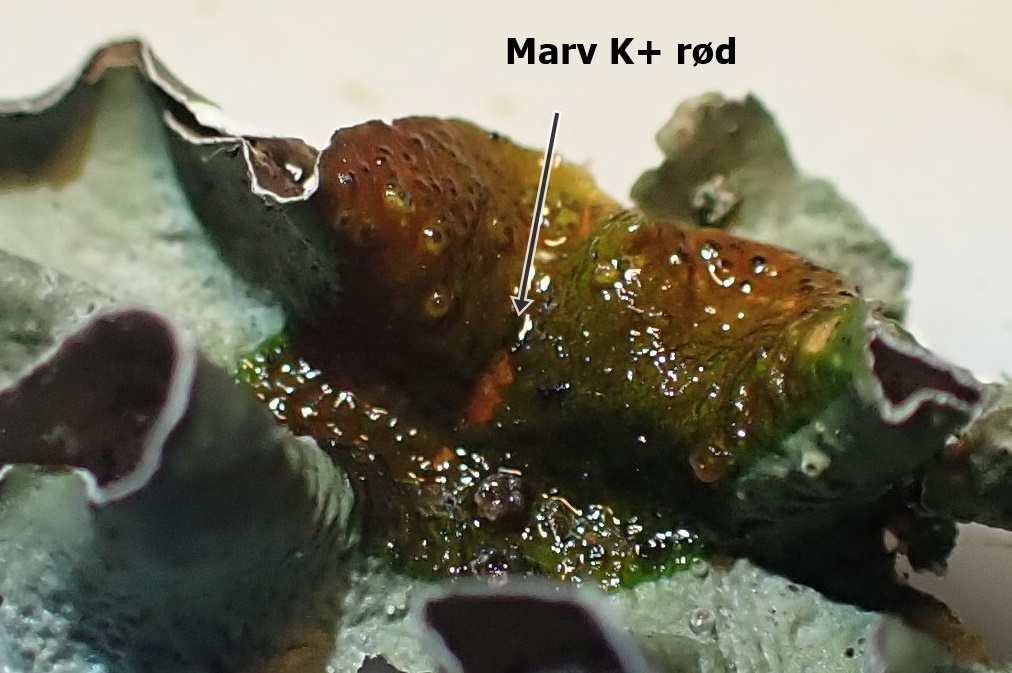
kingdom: Fungi
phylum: Ascomycota
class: Lecanoromycetes
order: Lecanorales
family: Parmeliaceae
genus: Pleurosticta
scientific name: Pleurosticta acetabulum
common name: stor skållav
